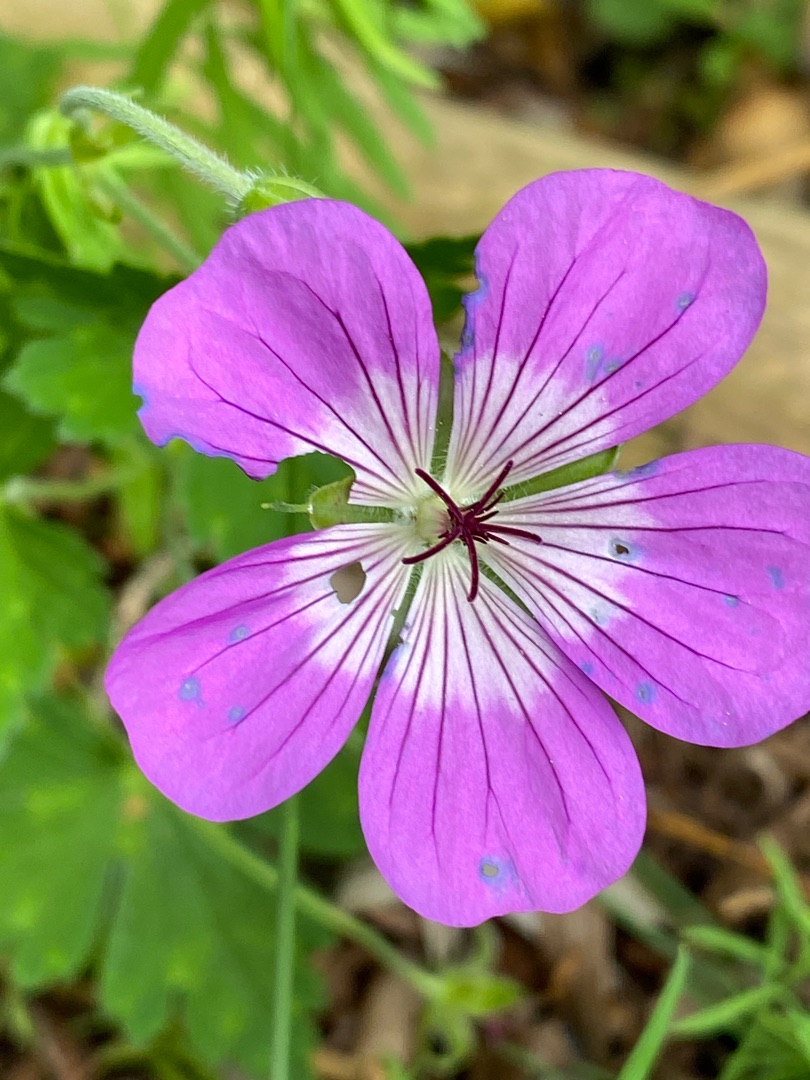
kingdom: Plantae
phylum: Tracheophyta
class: Magnoliopsida
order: Geraniales
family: Geraniaceae
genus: Geranium
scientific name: Geranium
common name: Storkenæbslægten
